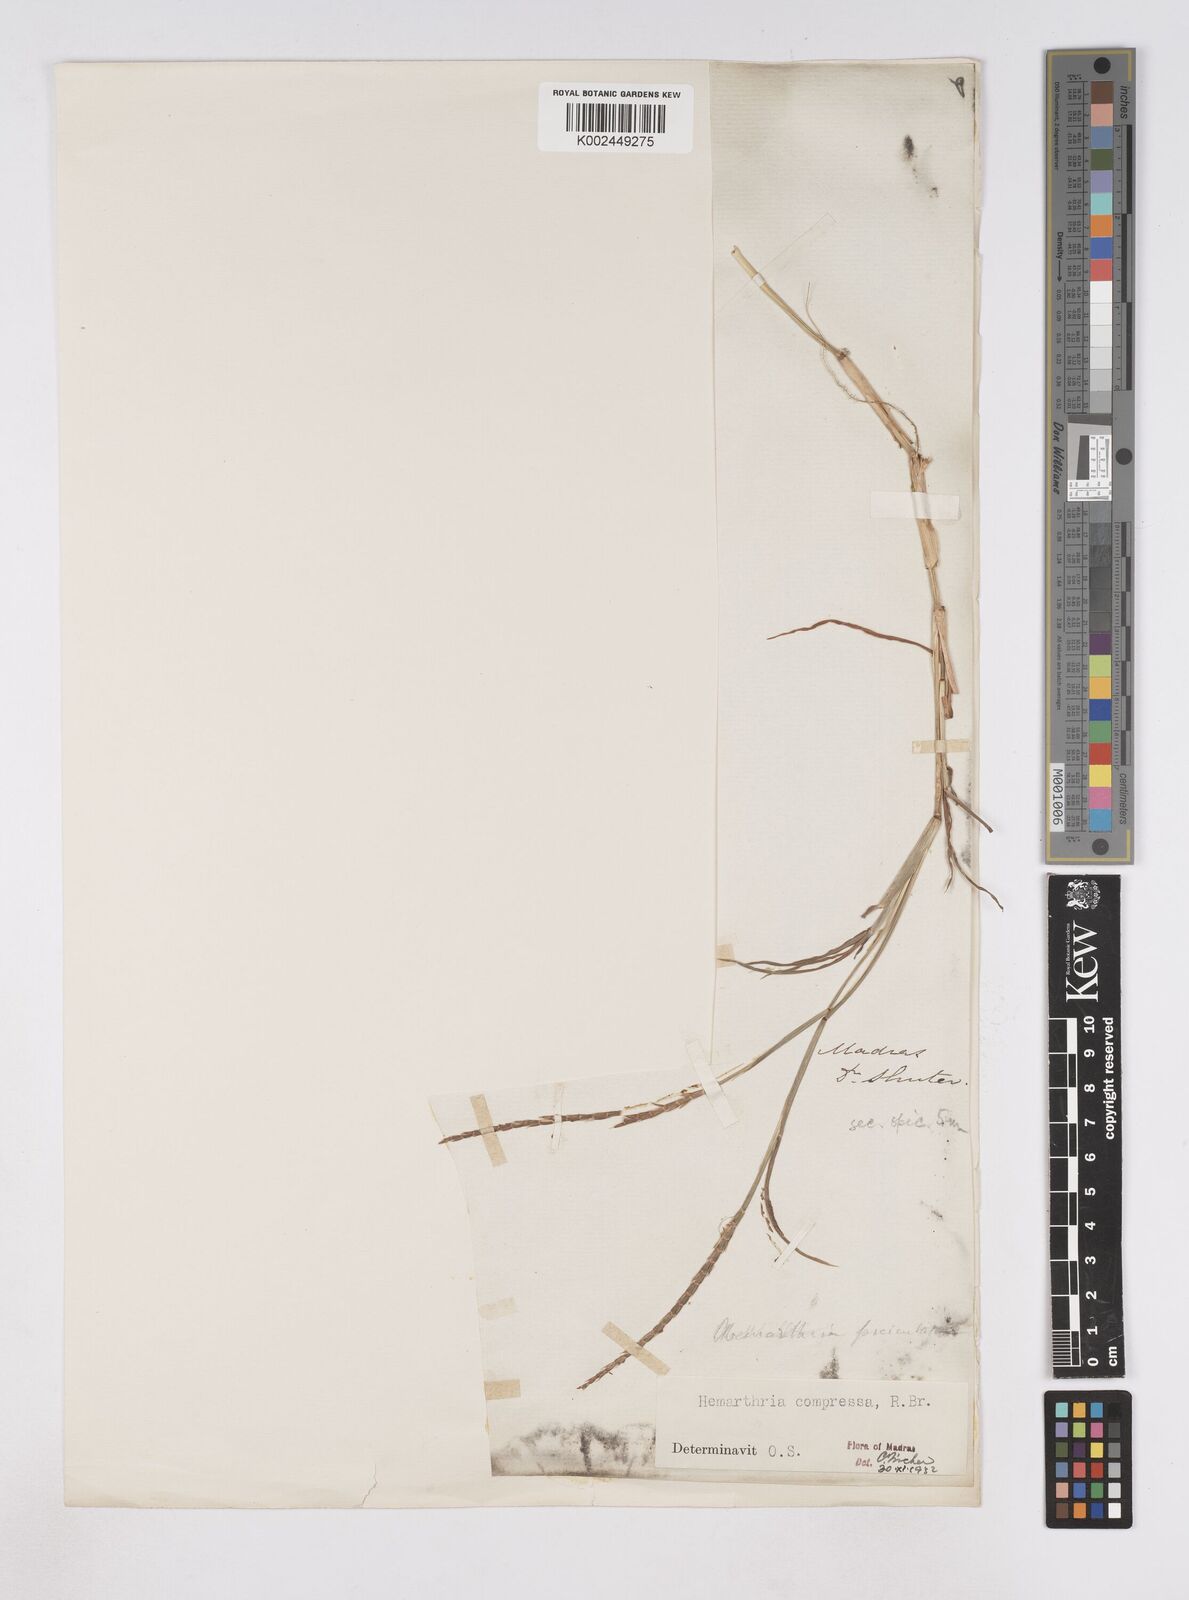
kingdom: Plantae
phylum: Tracheophyta
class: Liliopsida
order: Poales
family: Poaceae
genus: Hemarthria
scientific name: Hemarthria compressa
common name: Whip grass
